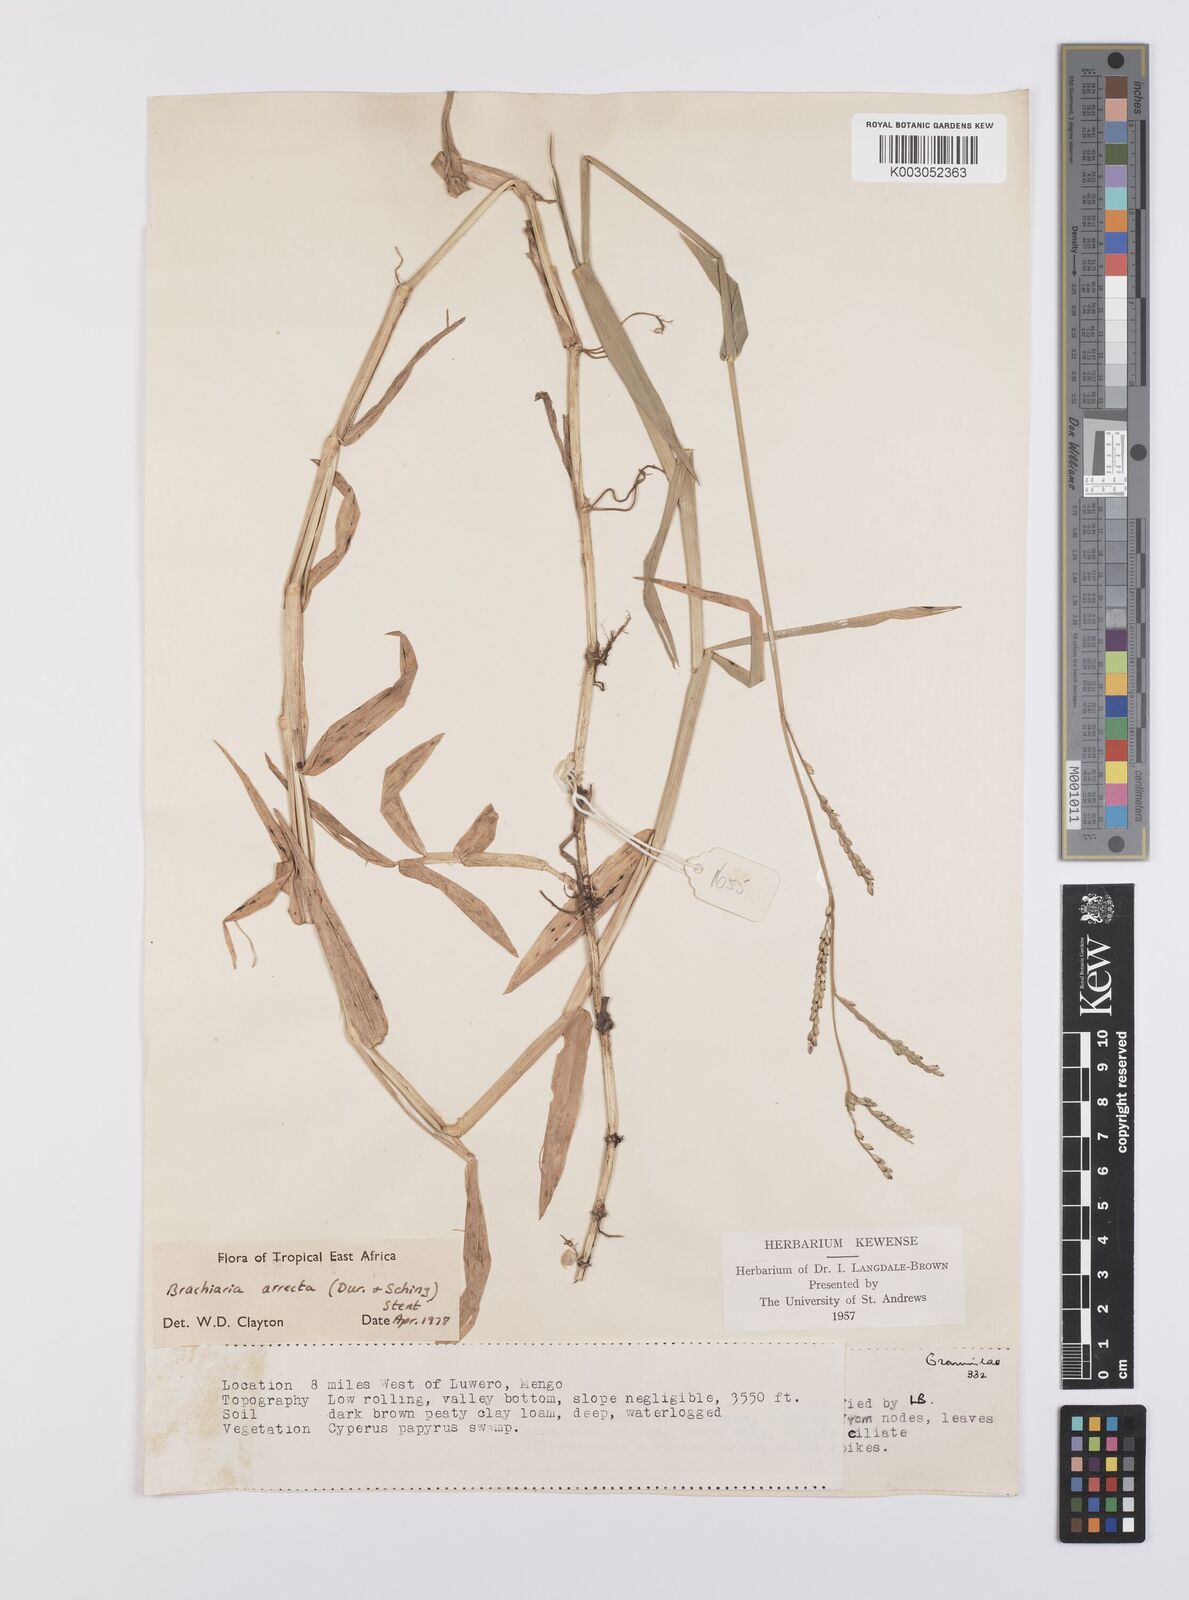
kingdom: Plantae
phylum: Tracheophyta
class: Liliopsida
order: Poales
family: Poaceae
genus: Urochloa
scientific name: Urochloa arrecta
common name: African signalgrass
